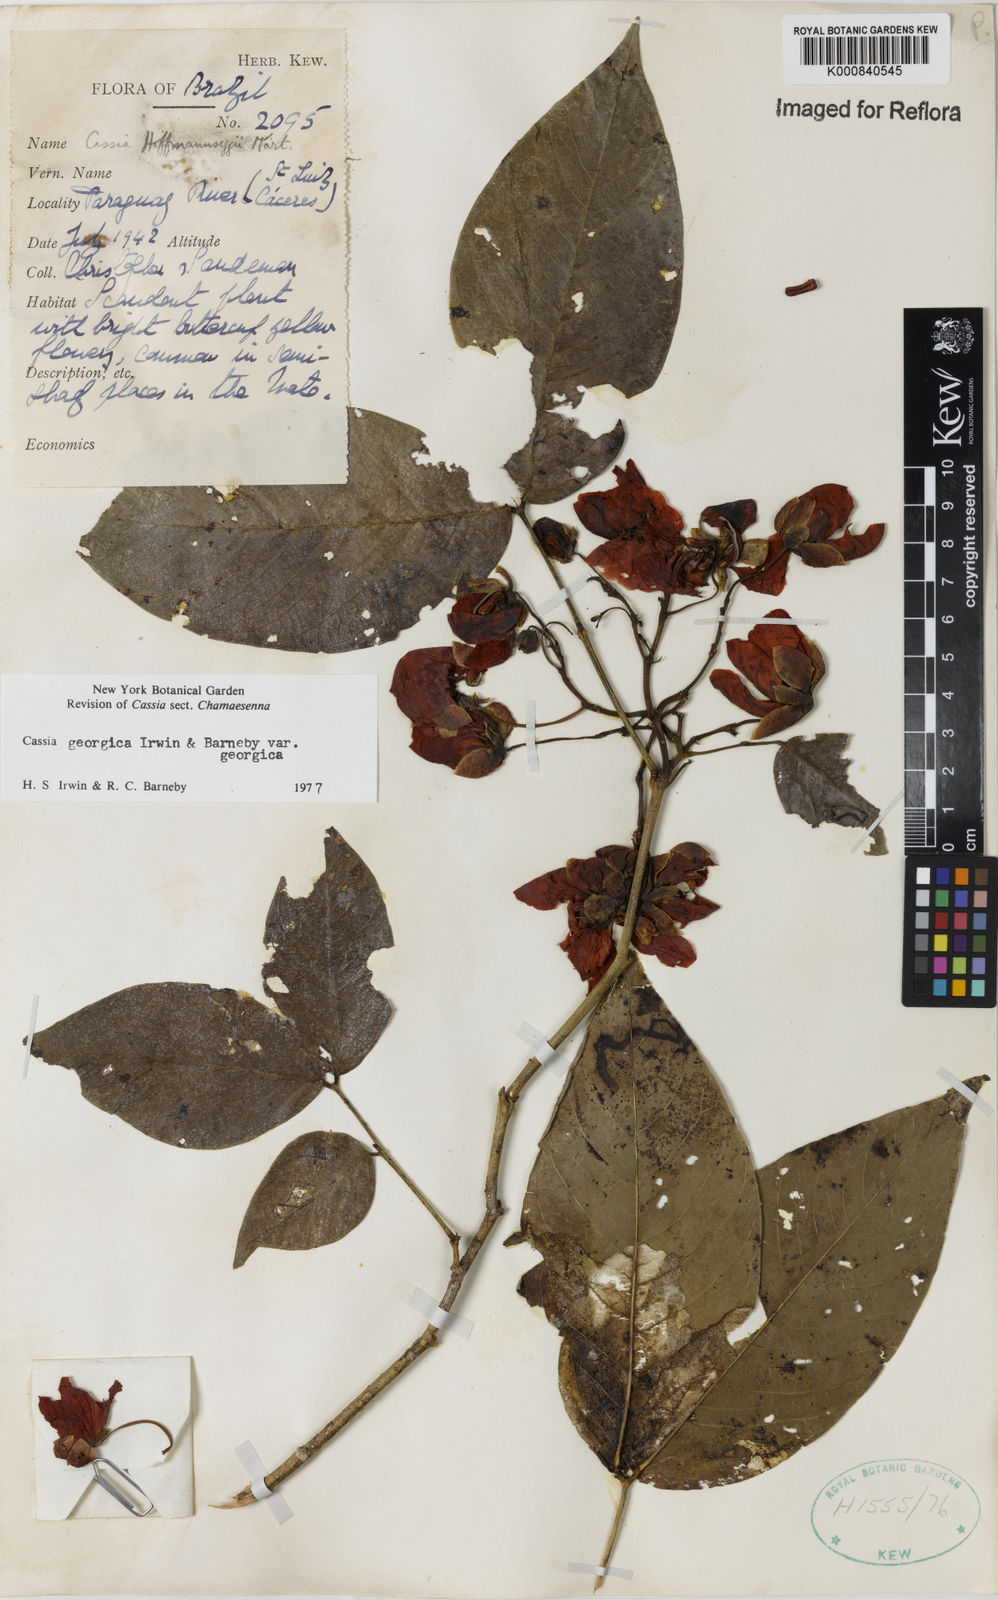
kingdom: Plantae
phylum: Tracheophyta
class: Magnoliopsida
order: Fabales
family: Fabaceae
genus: Senna
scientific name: Senna georgica
